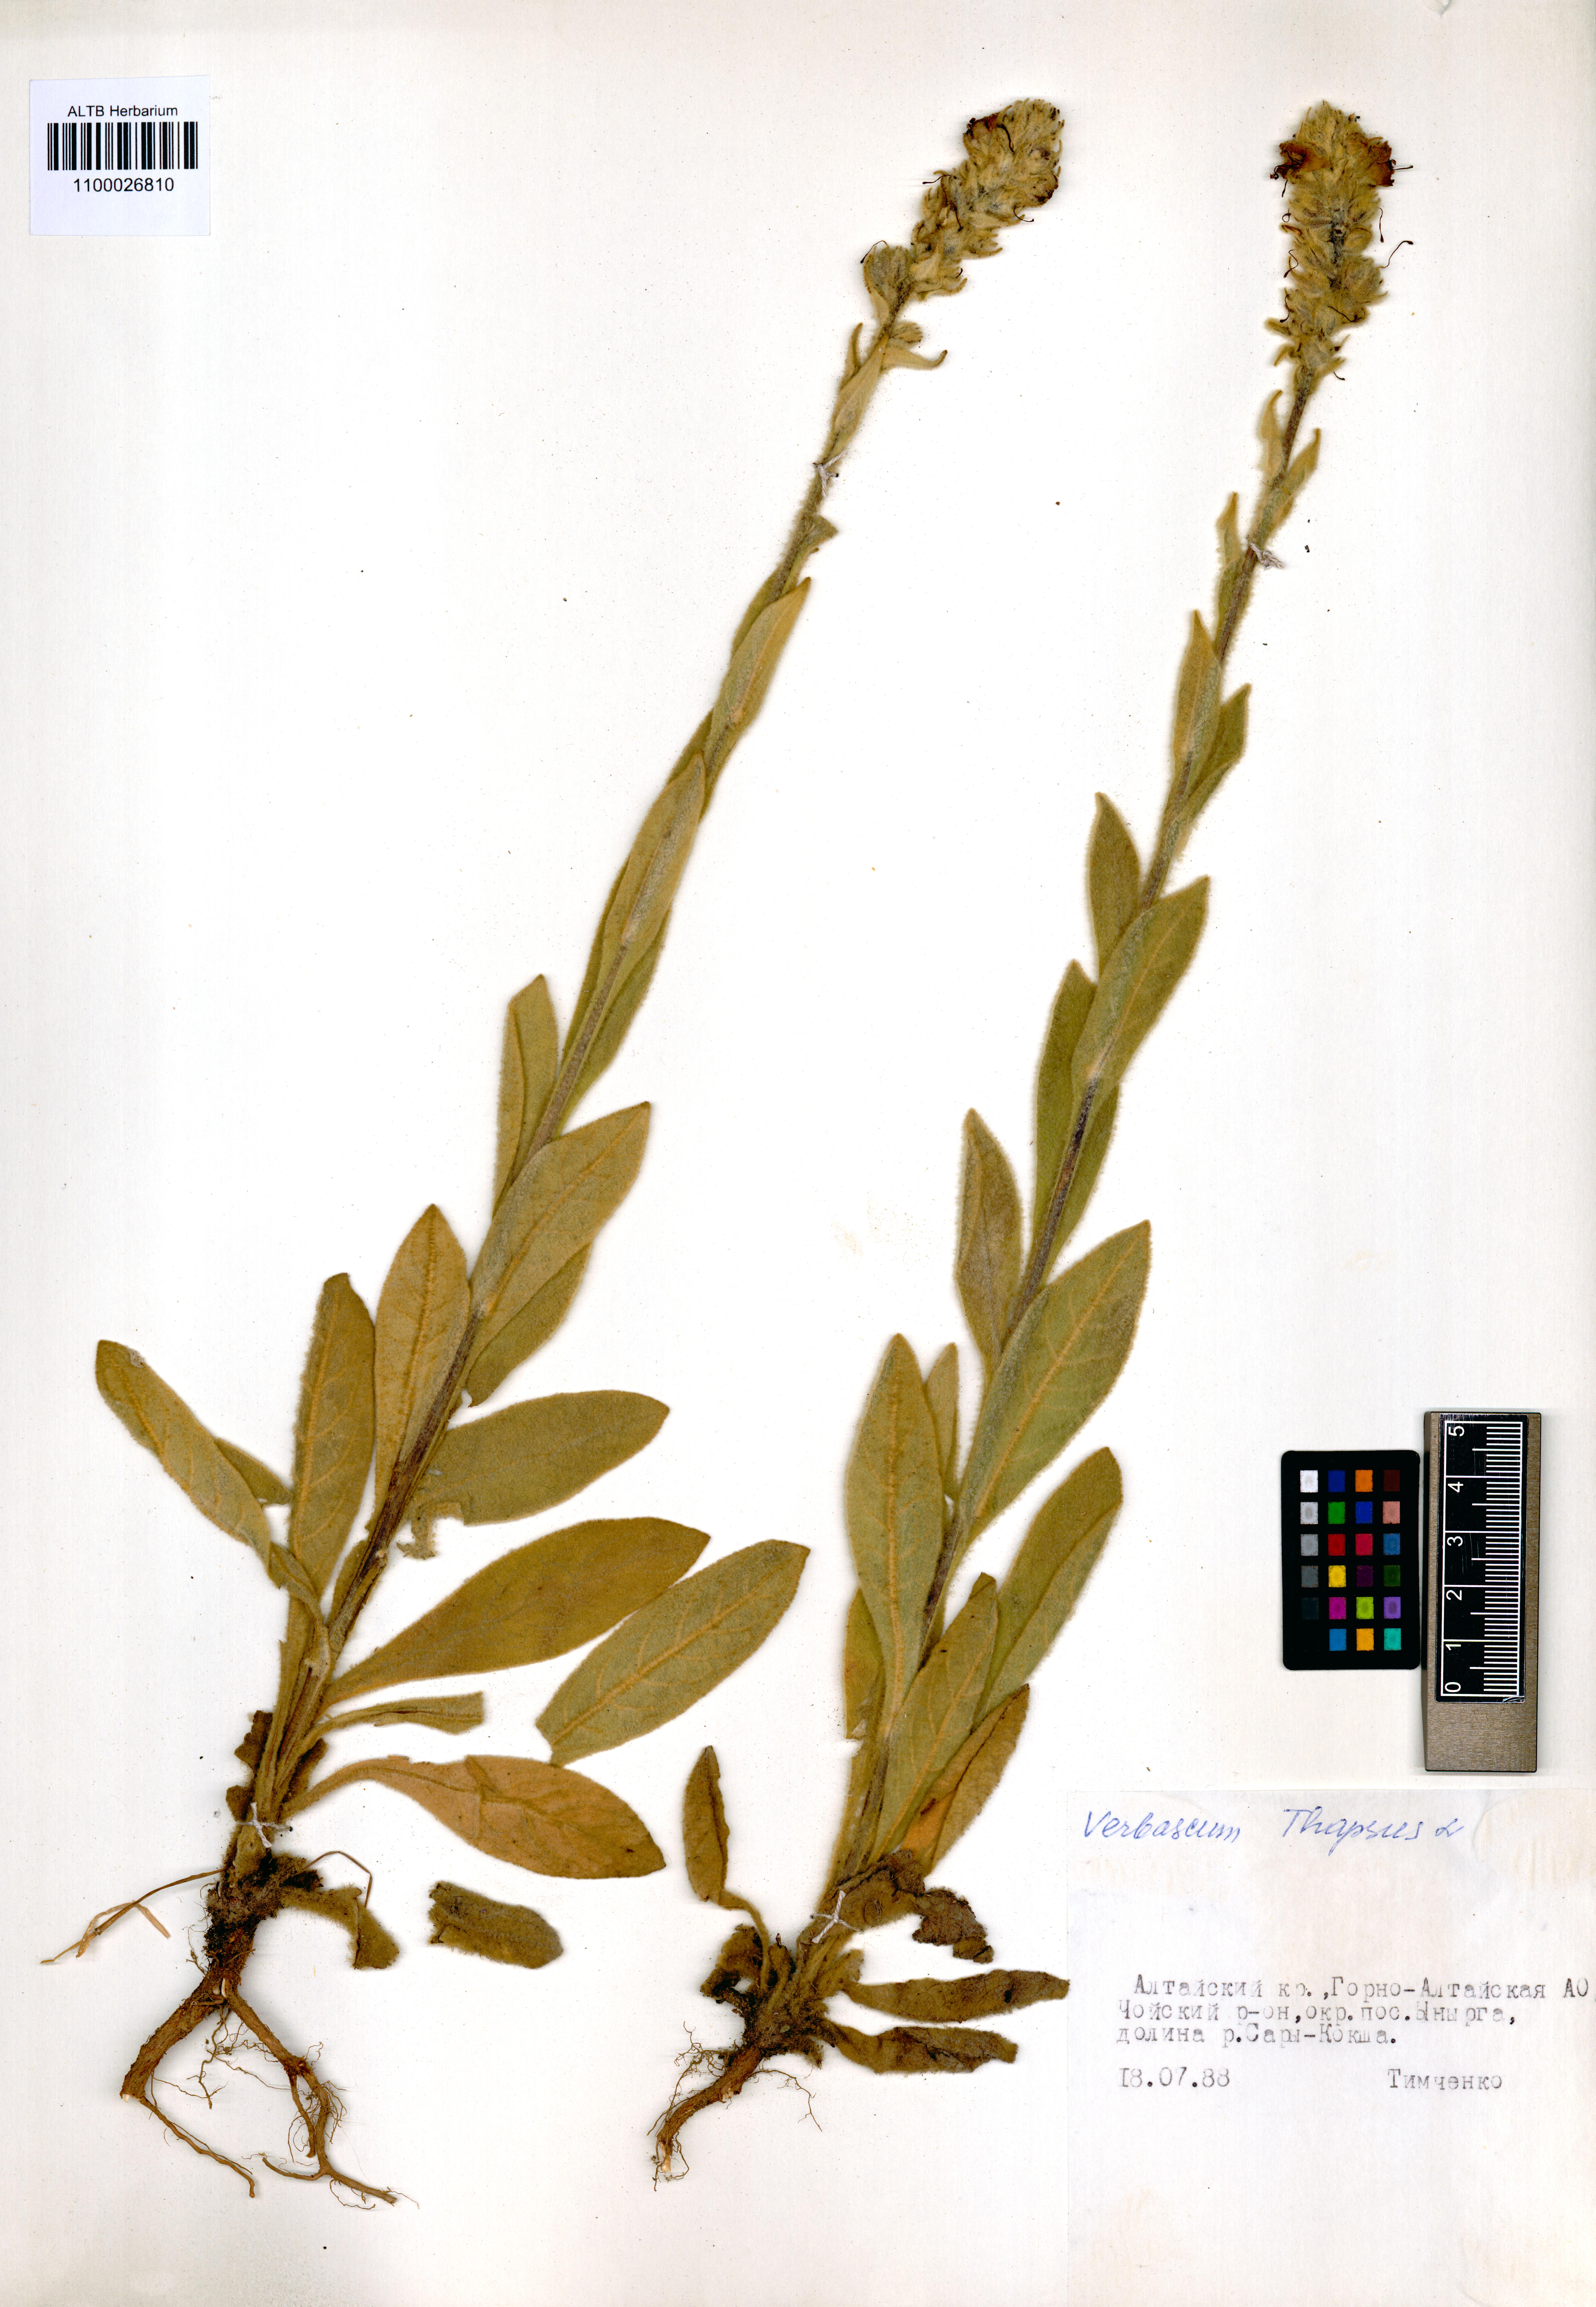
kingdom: Plantae
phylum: Tracheophyta
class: Magnoliopsida
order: Lamiales
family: Scrophulariaceae
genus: Verbascum
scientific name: Verbascum thapsus
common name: Common mullein
